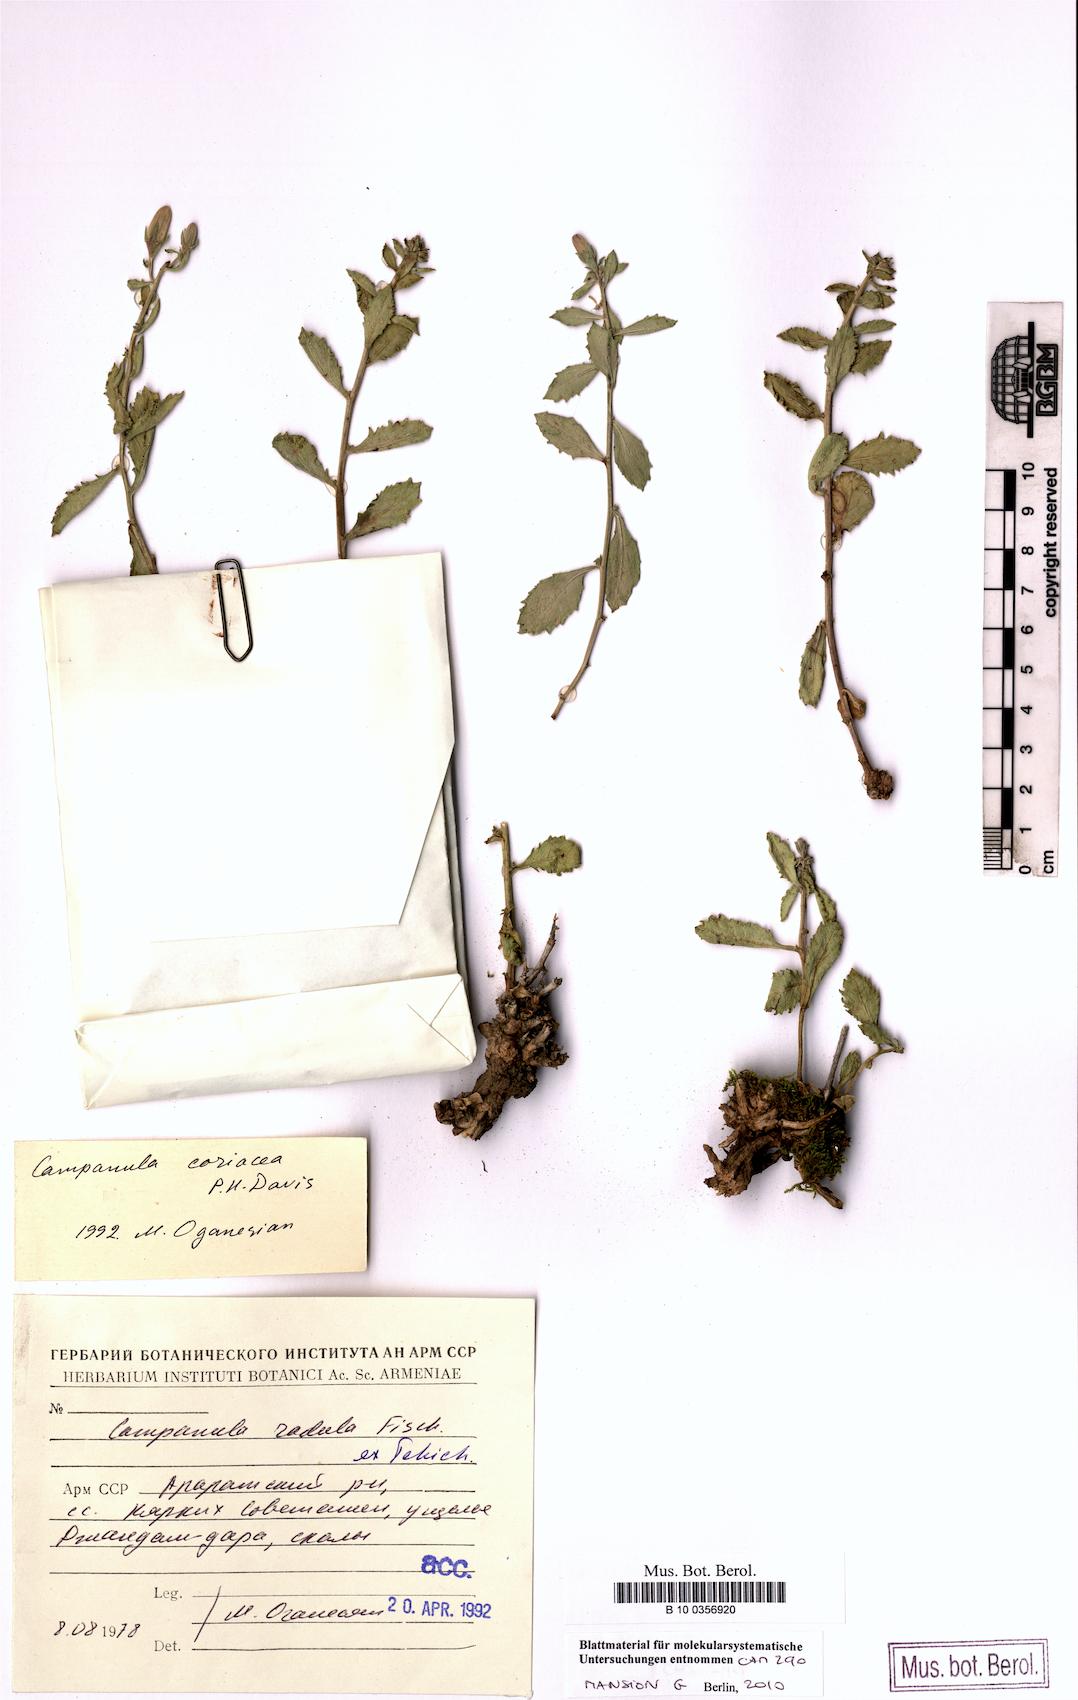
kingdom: Plantae
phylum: Tracheophyta
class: Magnoliopsida
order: Asterales
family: Campanulaceae
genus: Campanula
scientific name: Campanula coriacea
